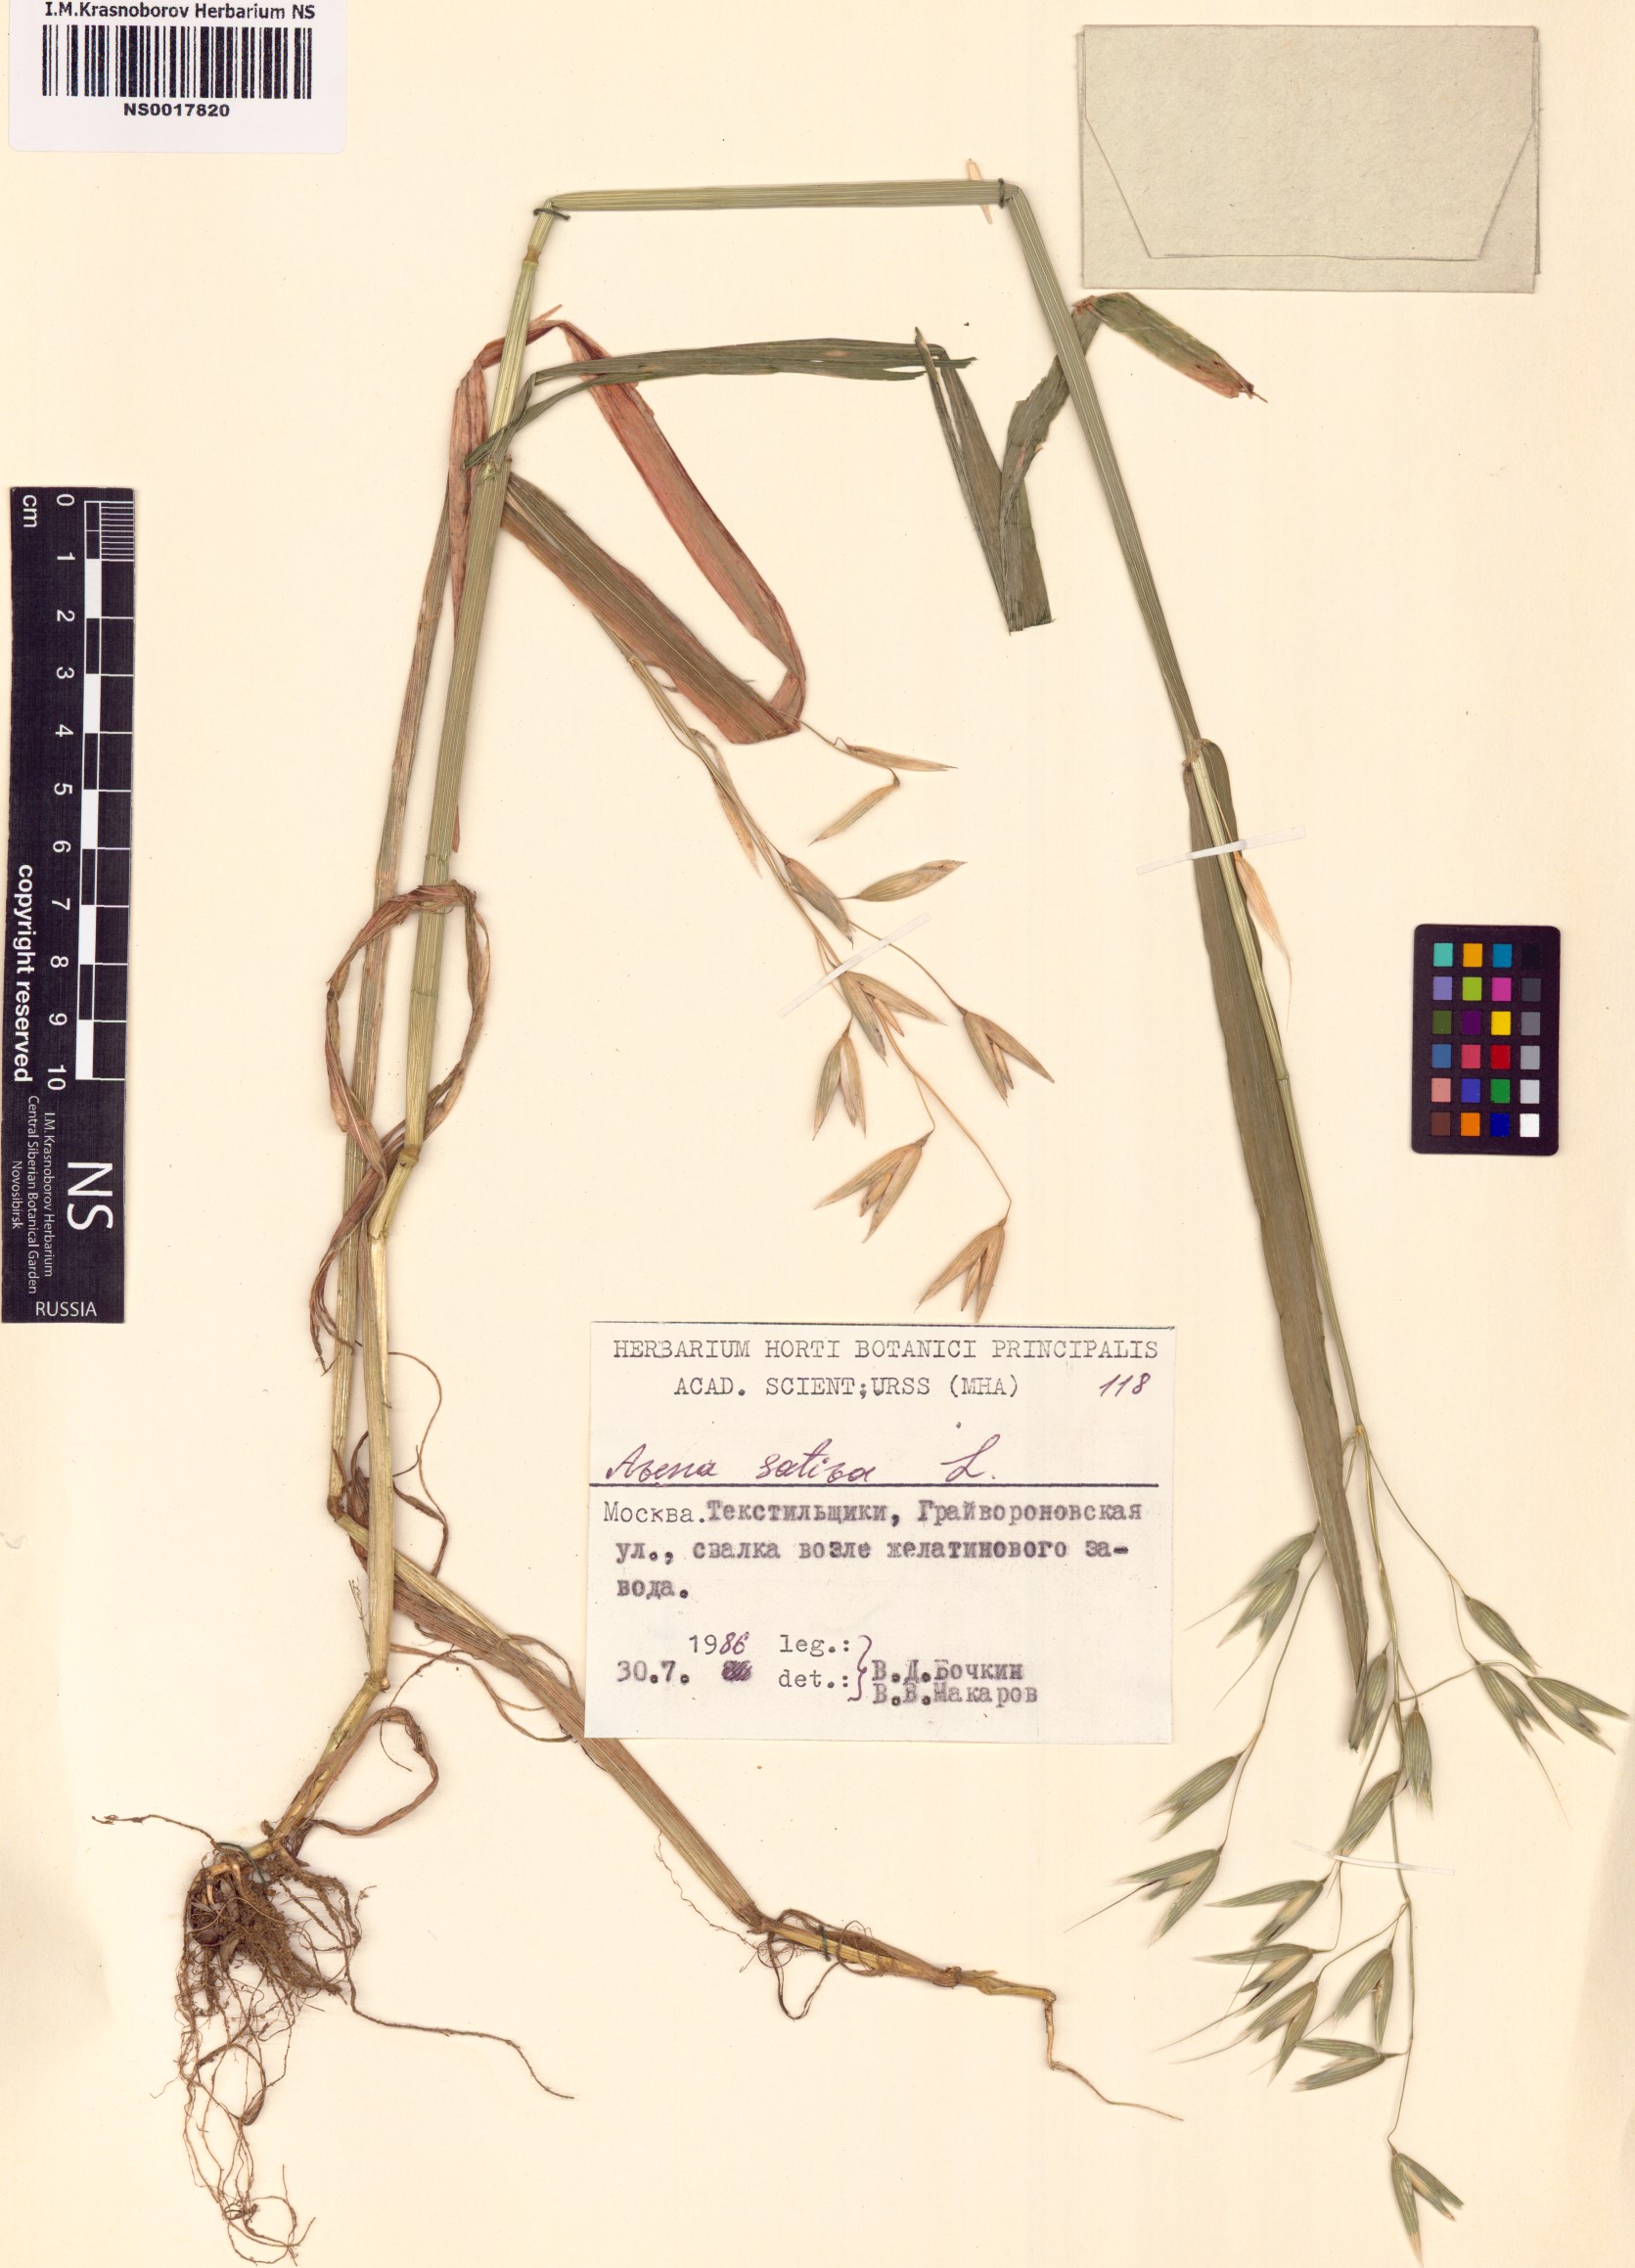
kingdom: Plantae
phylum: Tracheophyta
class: Liliopsida
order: Poales
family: Poaceae
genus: Avena
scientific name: Avena sativa
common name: Oat
